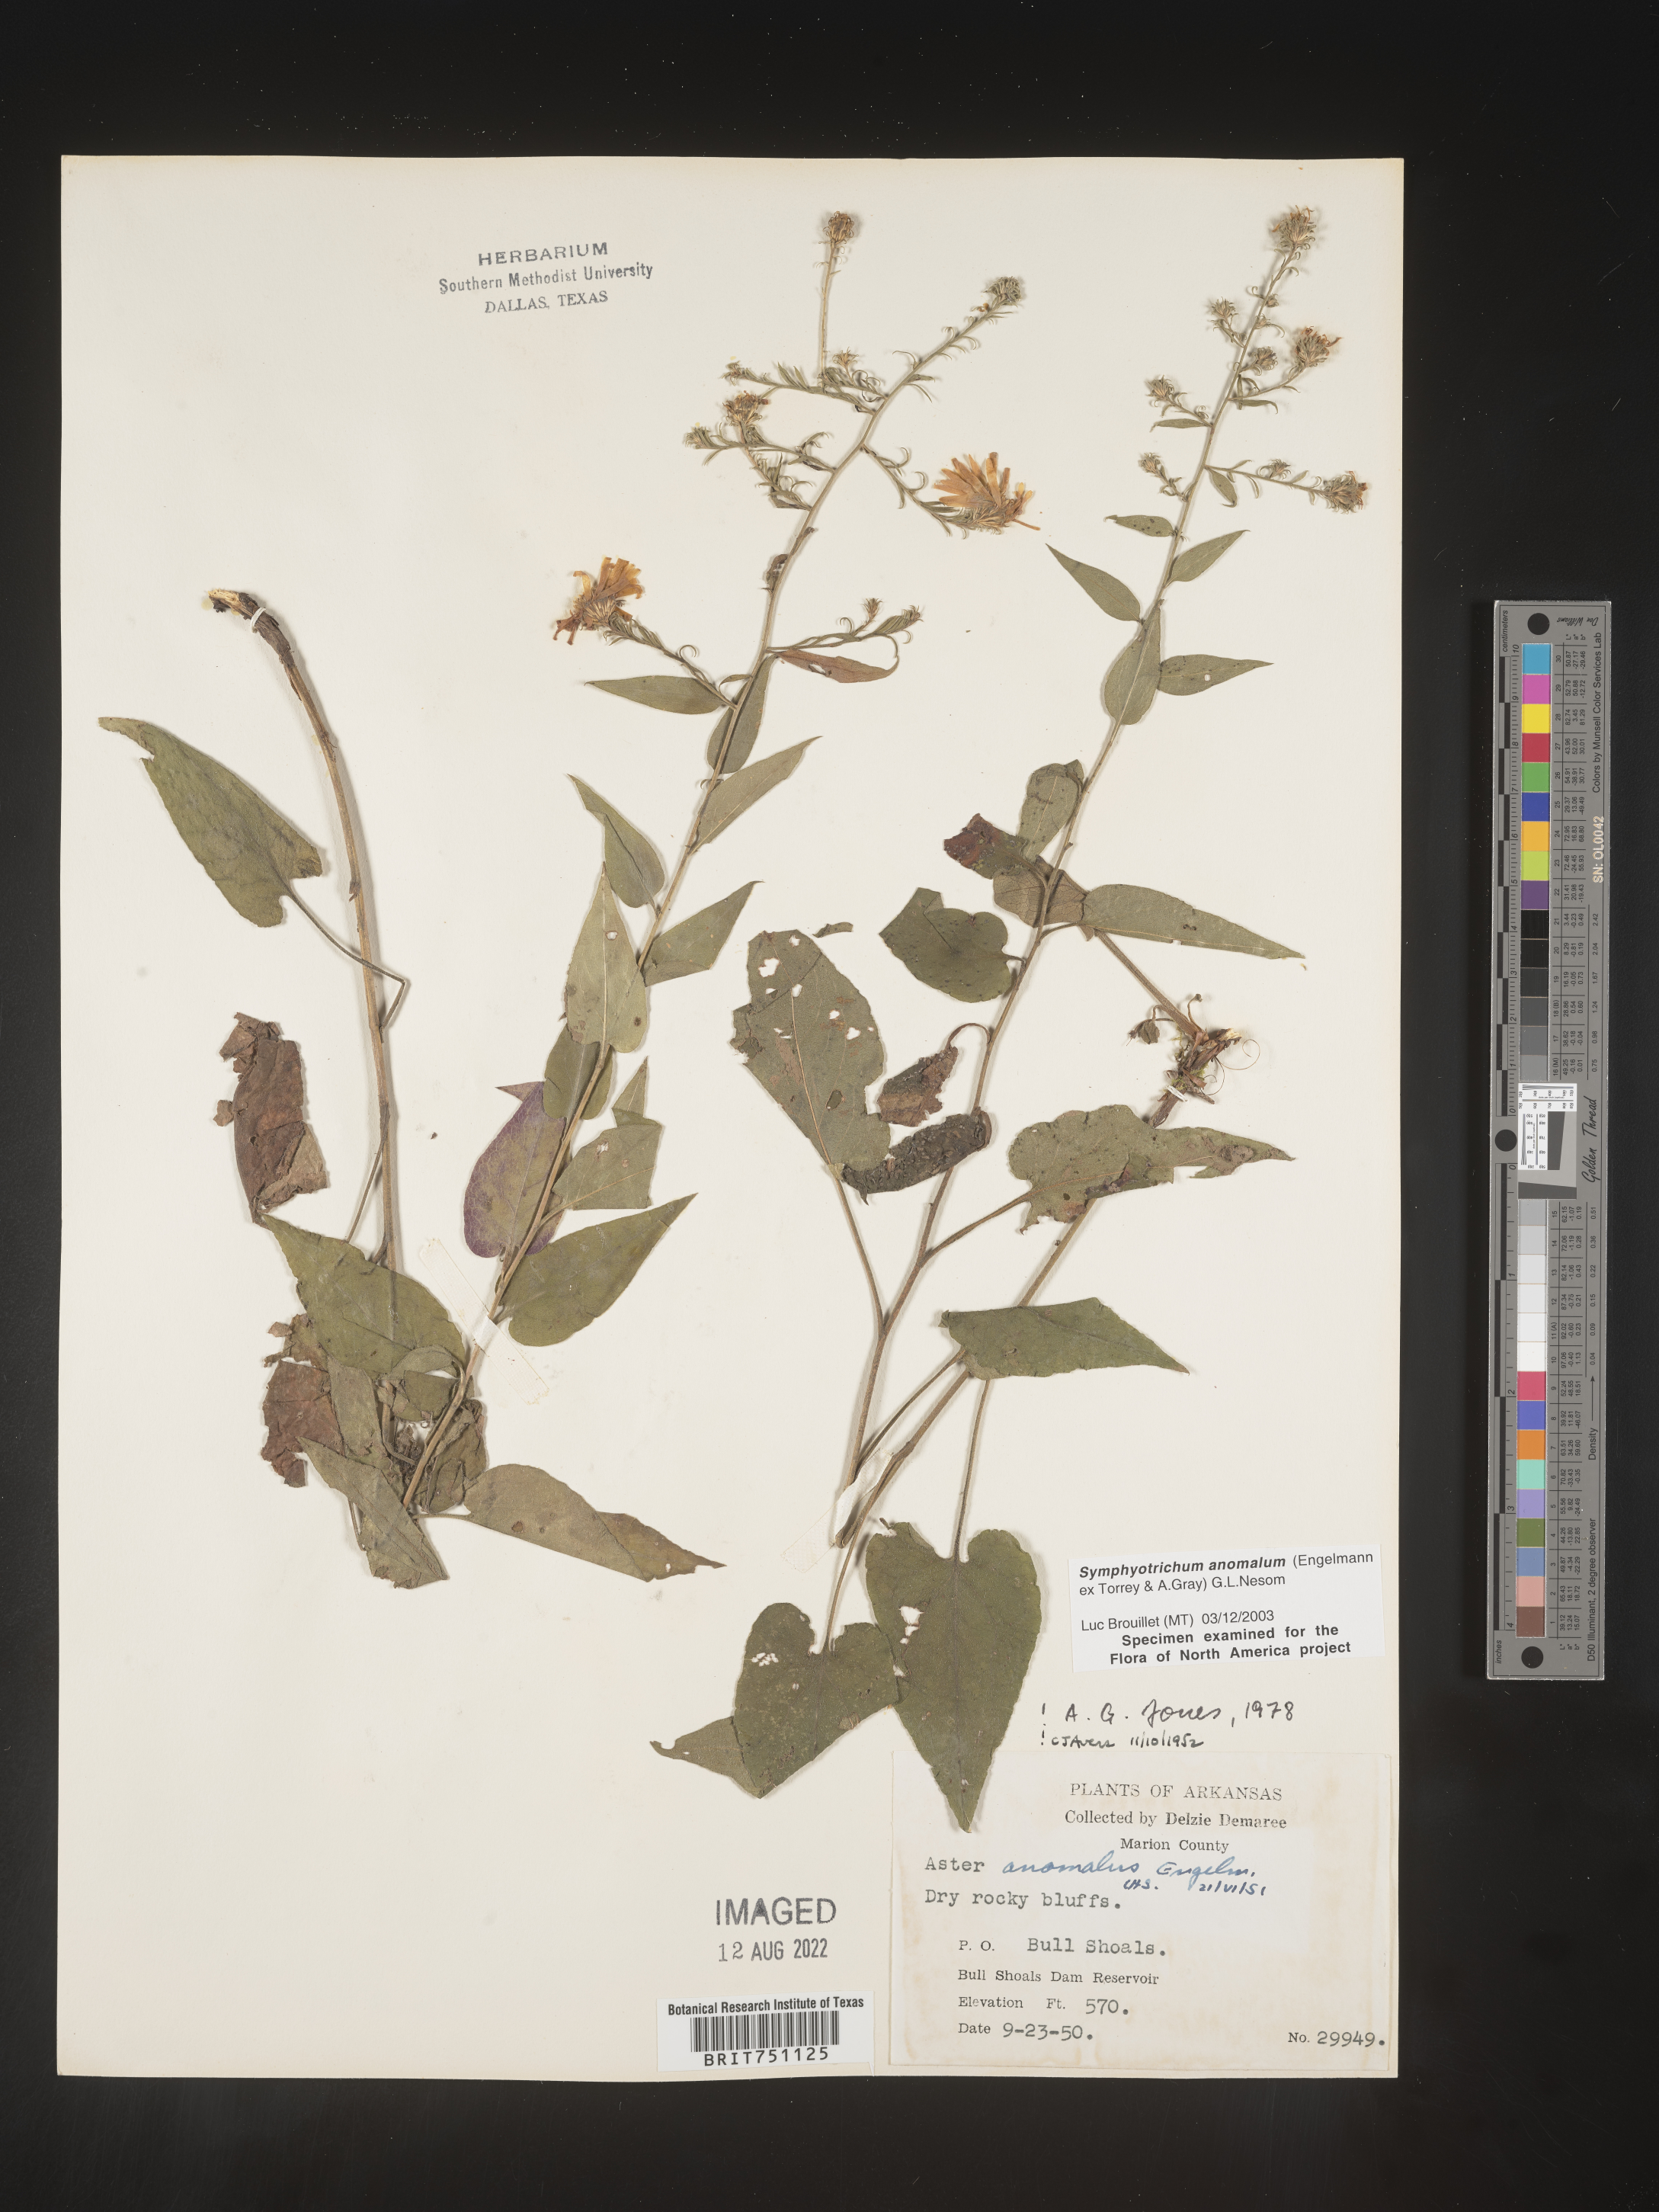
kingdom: Plantae
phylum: Tracheophyta
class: Magnoliopsida
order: Asterales
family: Asteraceae
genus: Symphyotrichum
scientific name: Symphyotrichum anomalum
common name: Many-ray aster
